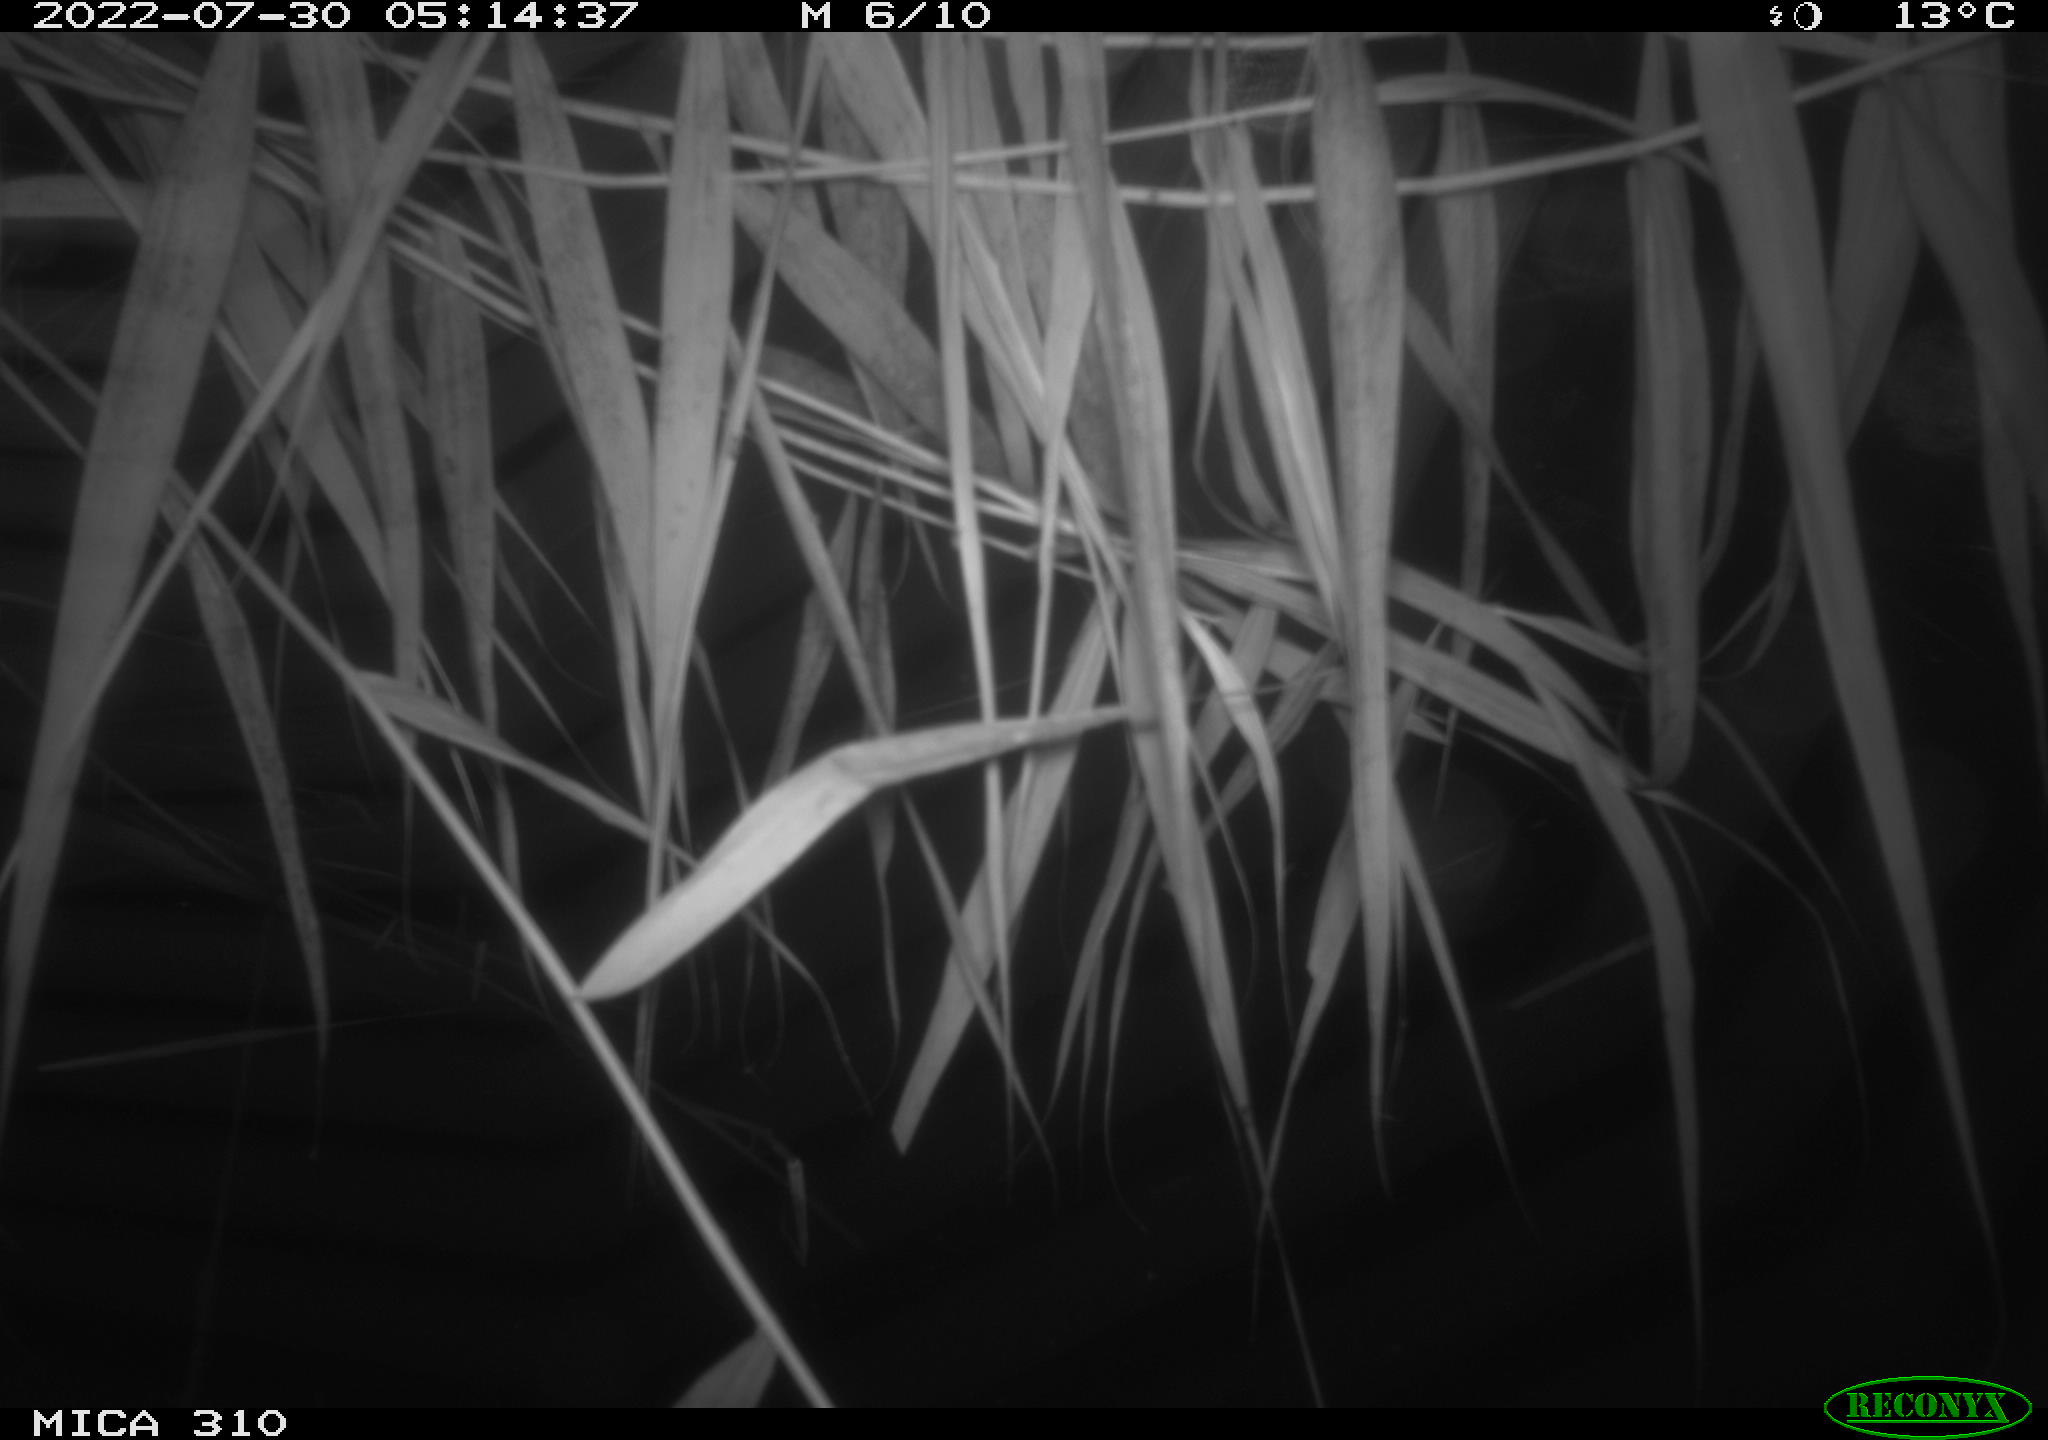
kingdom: Animalia
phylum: Chordata
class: Aves
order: Anseriformes
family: Anatidae
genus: Anas
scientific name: Anas platyrhynchos
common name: Mallard
